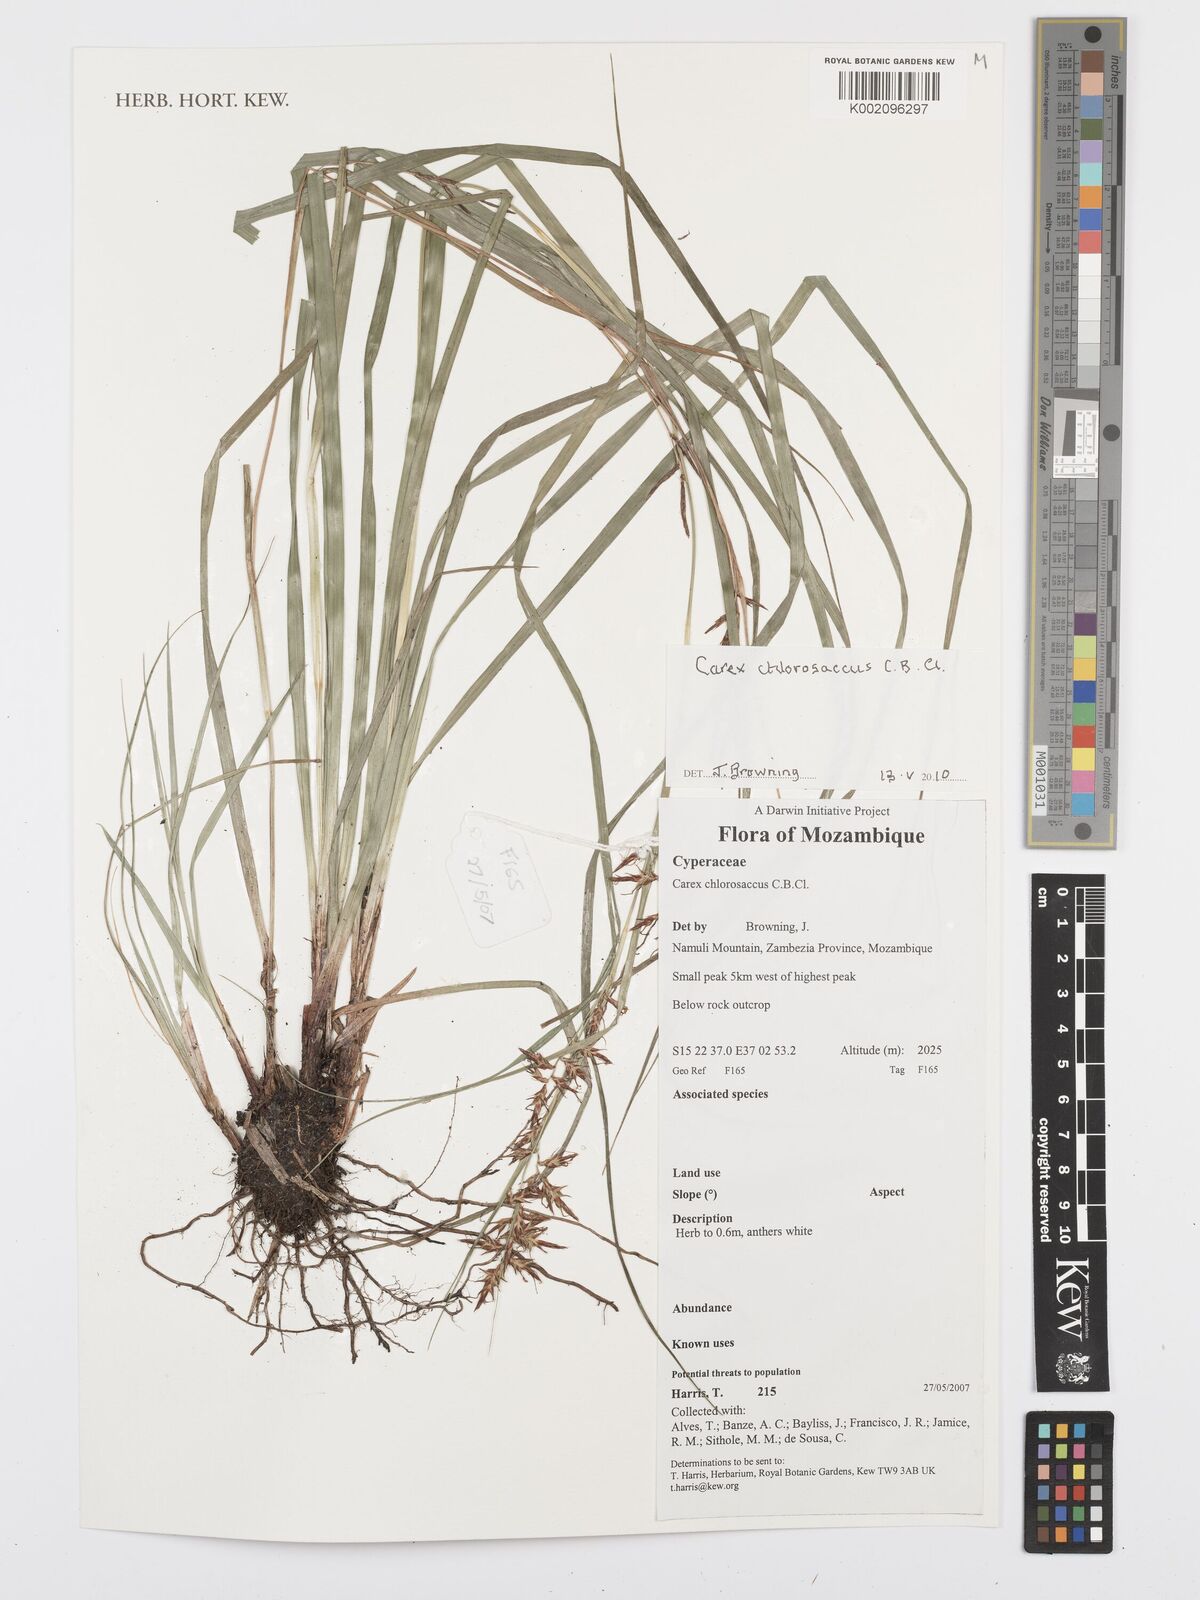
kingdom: Plantae
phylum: Tracheophyta
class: Liliopsida
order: Poales
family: Cyperaceae
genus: Carex
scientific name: Carex chlorosaccus
